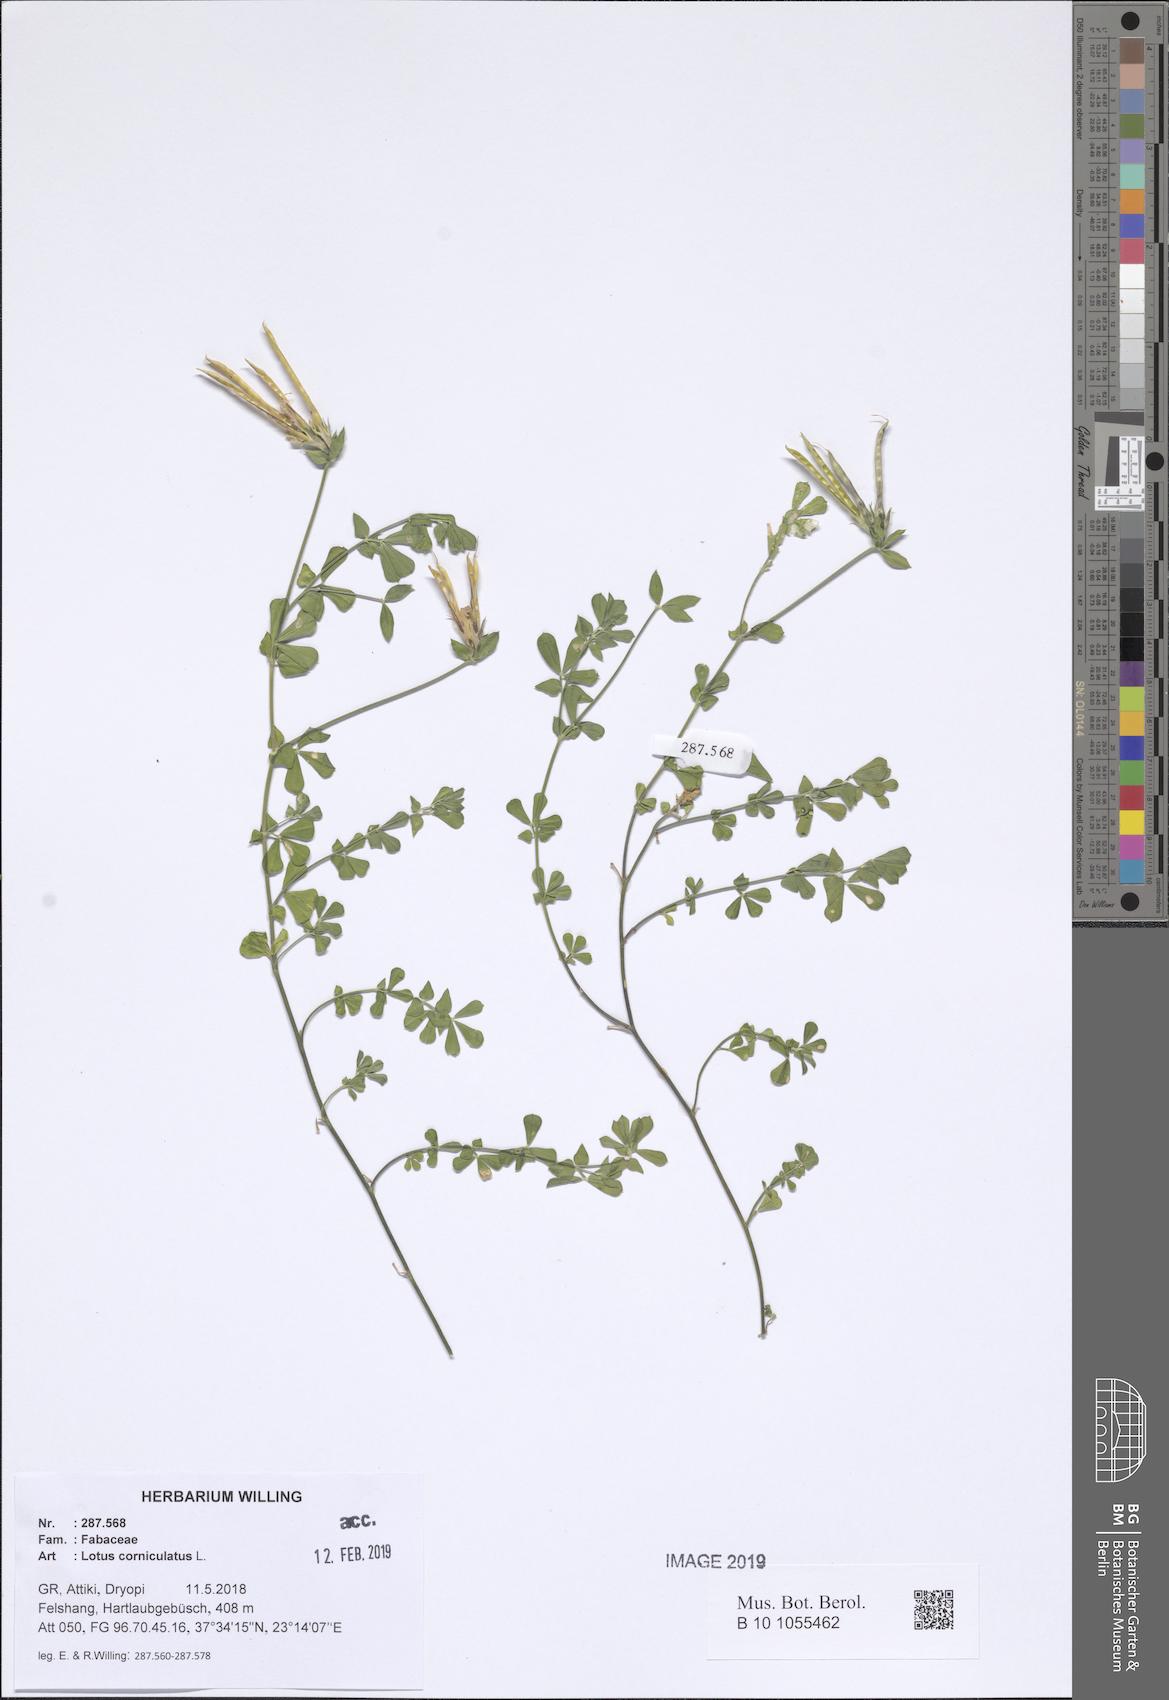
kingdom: Plantae
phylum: Tracheophyta
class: Magnoliopsida
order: Fabales
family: Fabaceae
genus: Lotus
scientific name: Lotus corniculatus
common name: Common bird's-foot-trefoil
